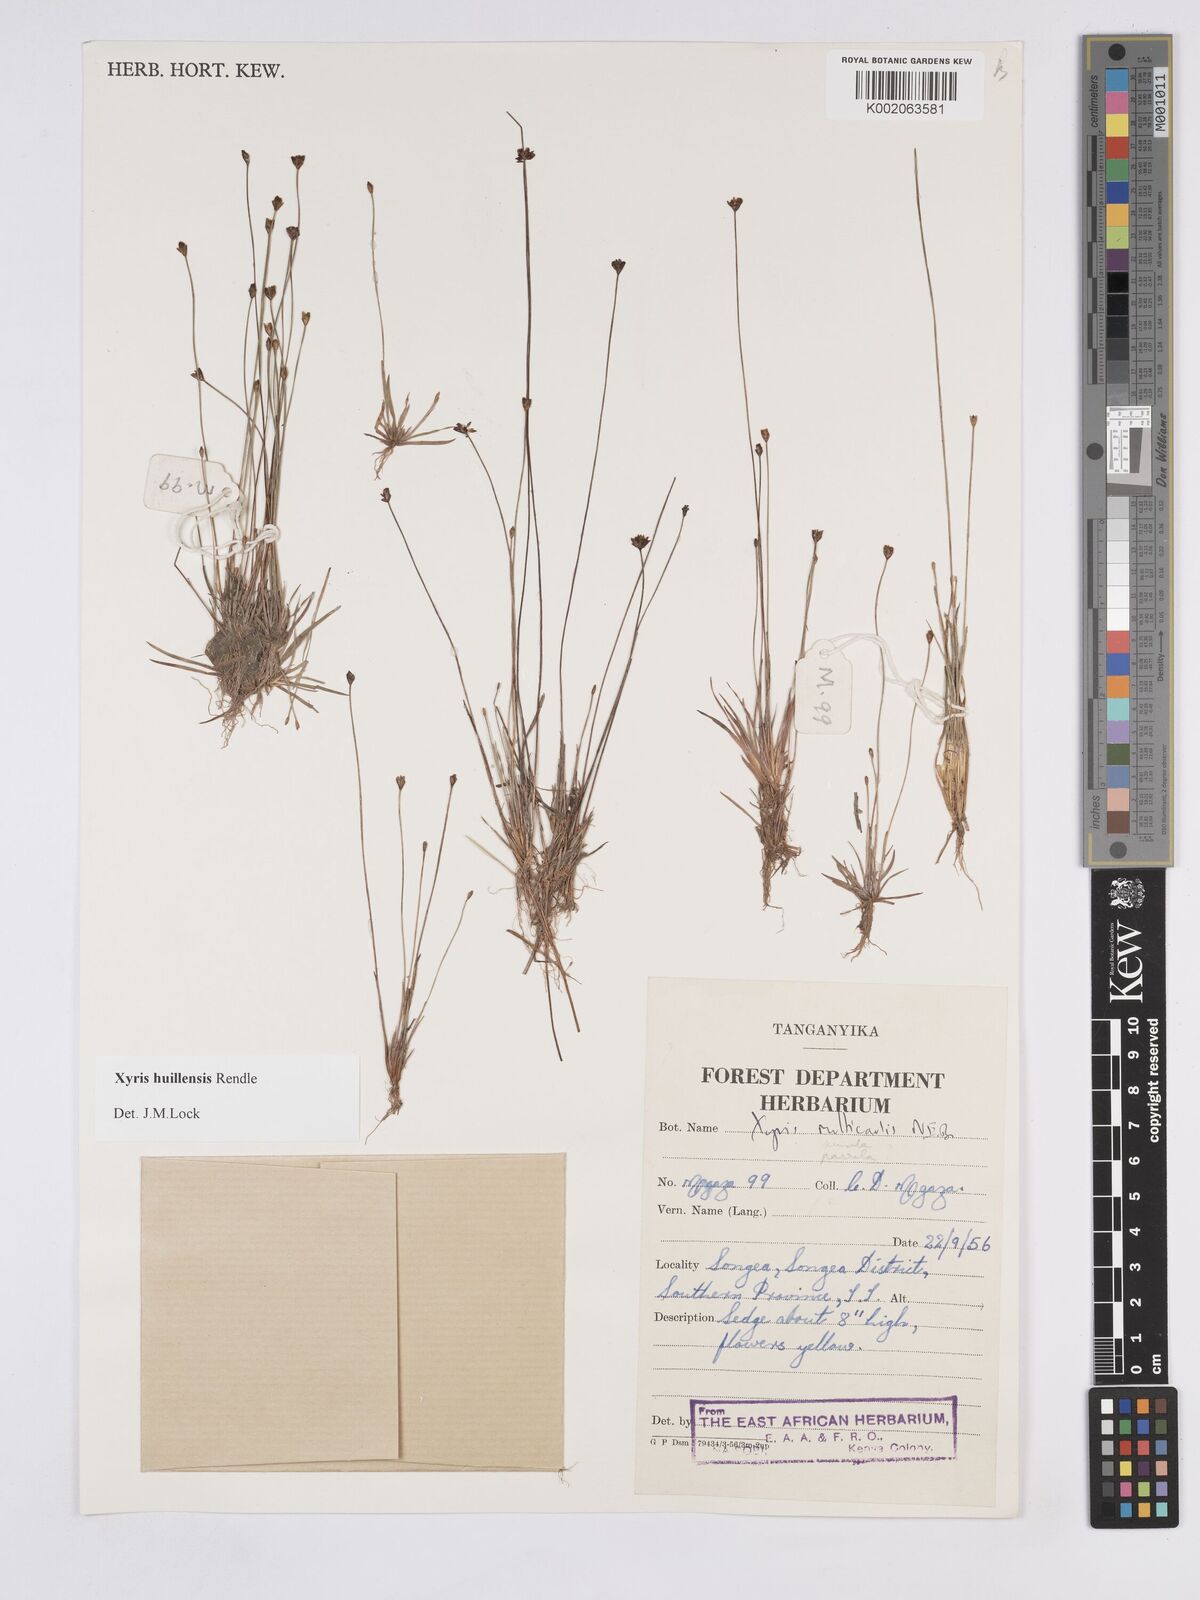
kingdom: Plantae
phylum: Tracheophyta
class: Liliopsida
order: Poales
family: Xyridaceae
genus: Xyris
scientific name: Xyris huillensis
